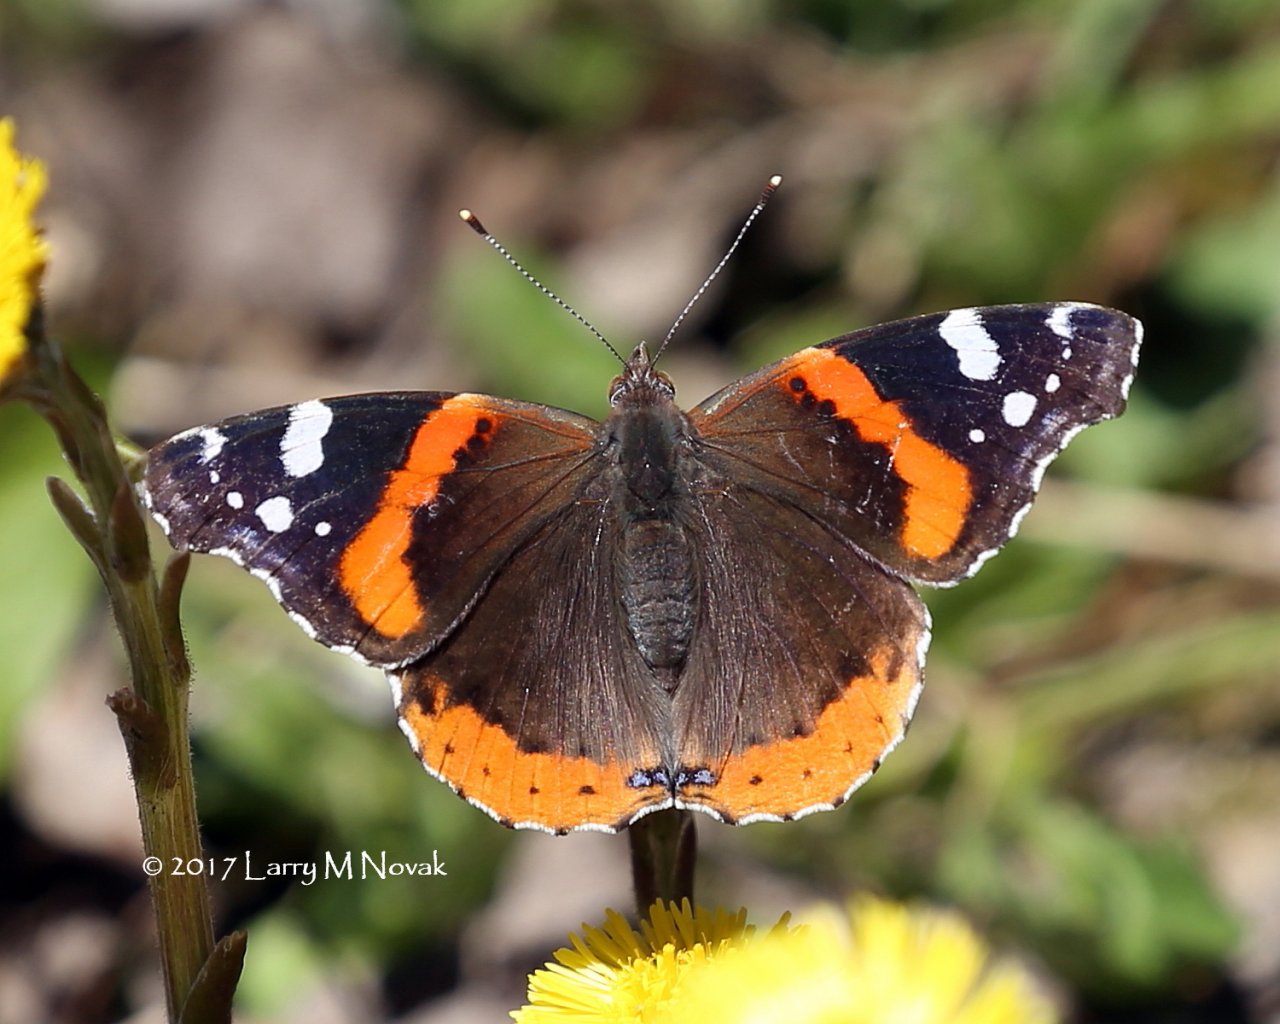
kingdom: Animalia
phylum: Arthropoda
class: Insecta
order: Lepidoptera
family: Nymphalidae
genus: Vanessa
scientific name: Vanessa atalanta
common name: Red Admiral
